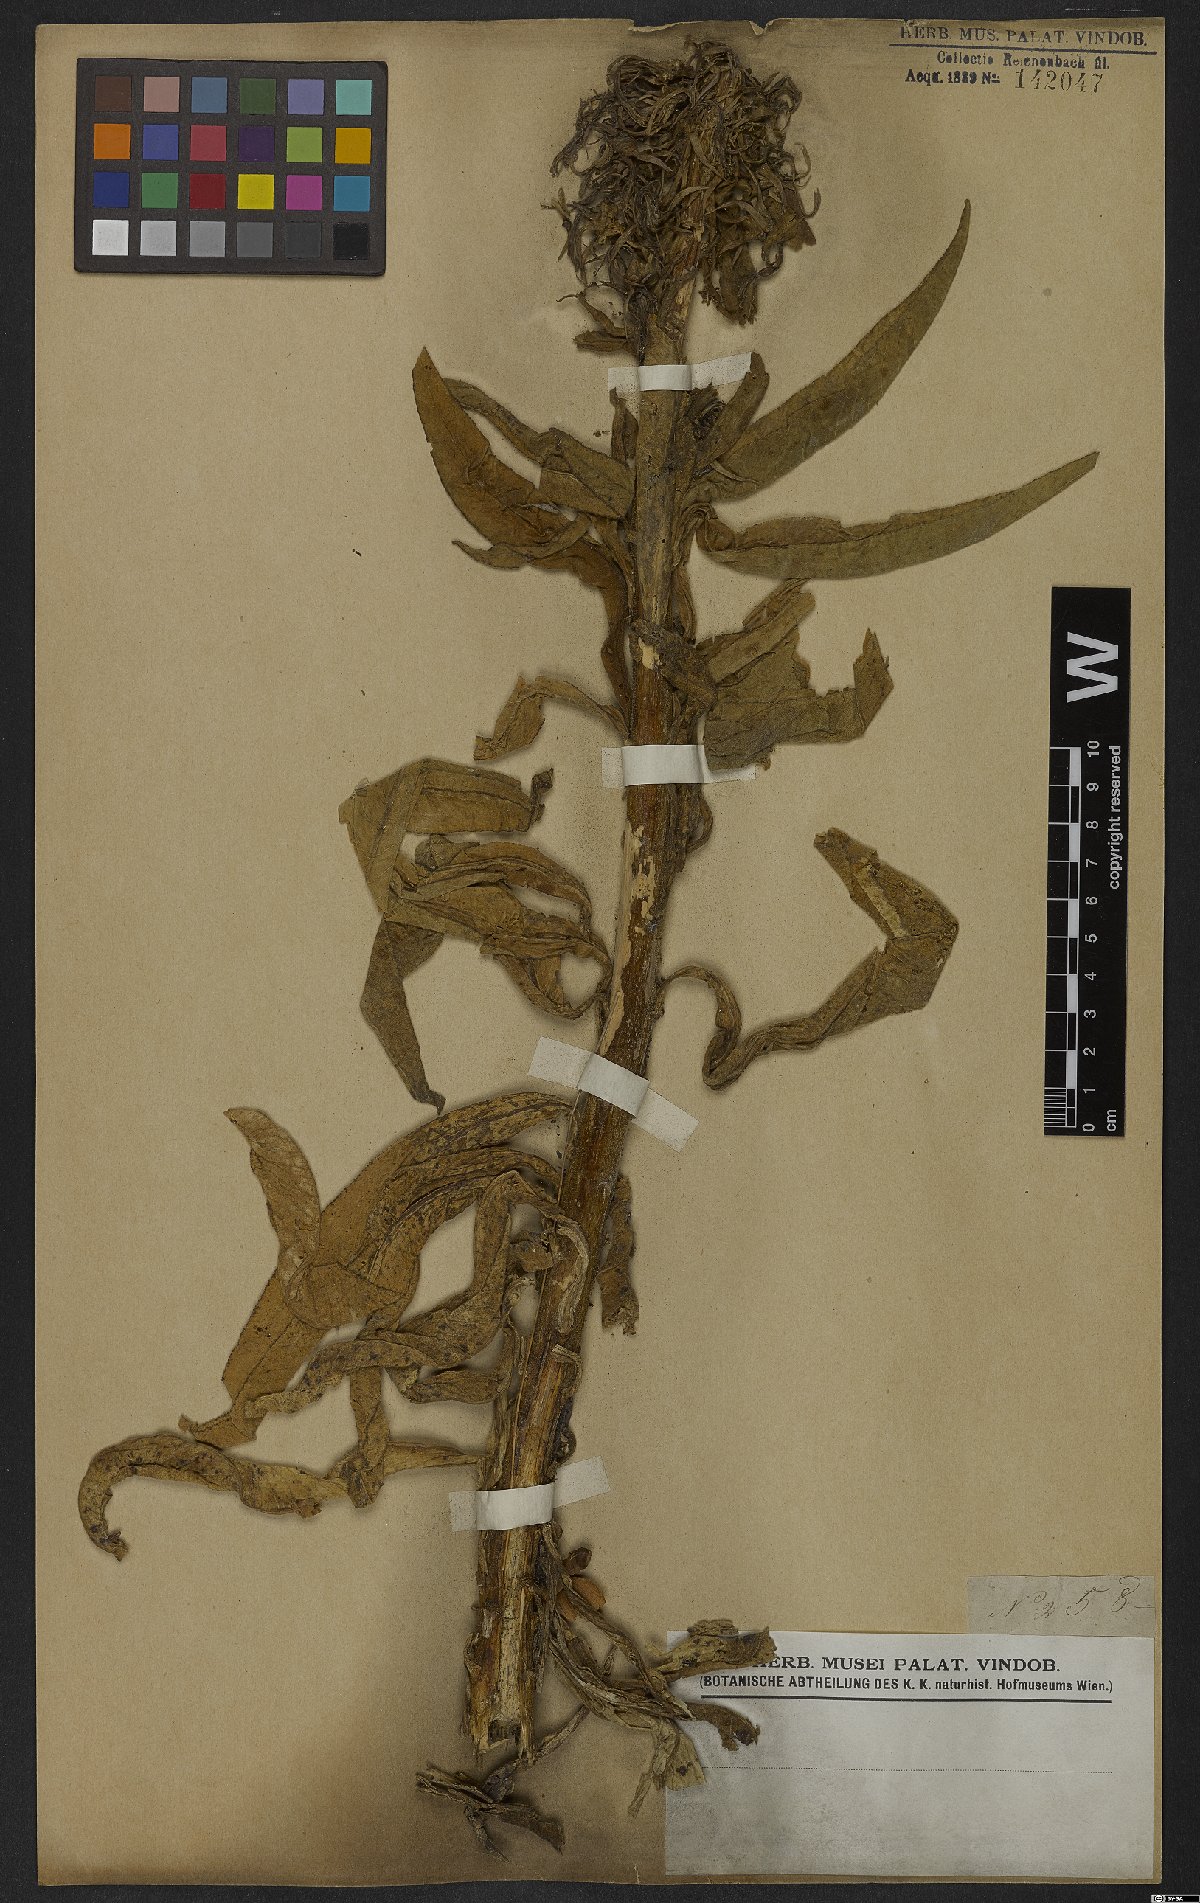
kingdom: Plantae
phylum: Tracheophyta
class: Magnoliopsida
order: Asterales
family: Campanulaceae
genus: Lobelia
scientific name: Lobelia thapsoidea
